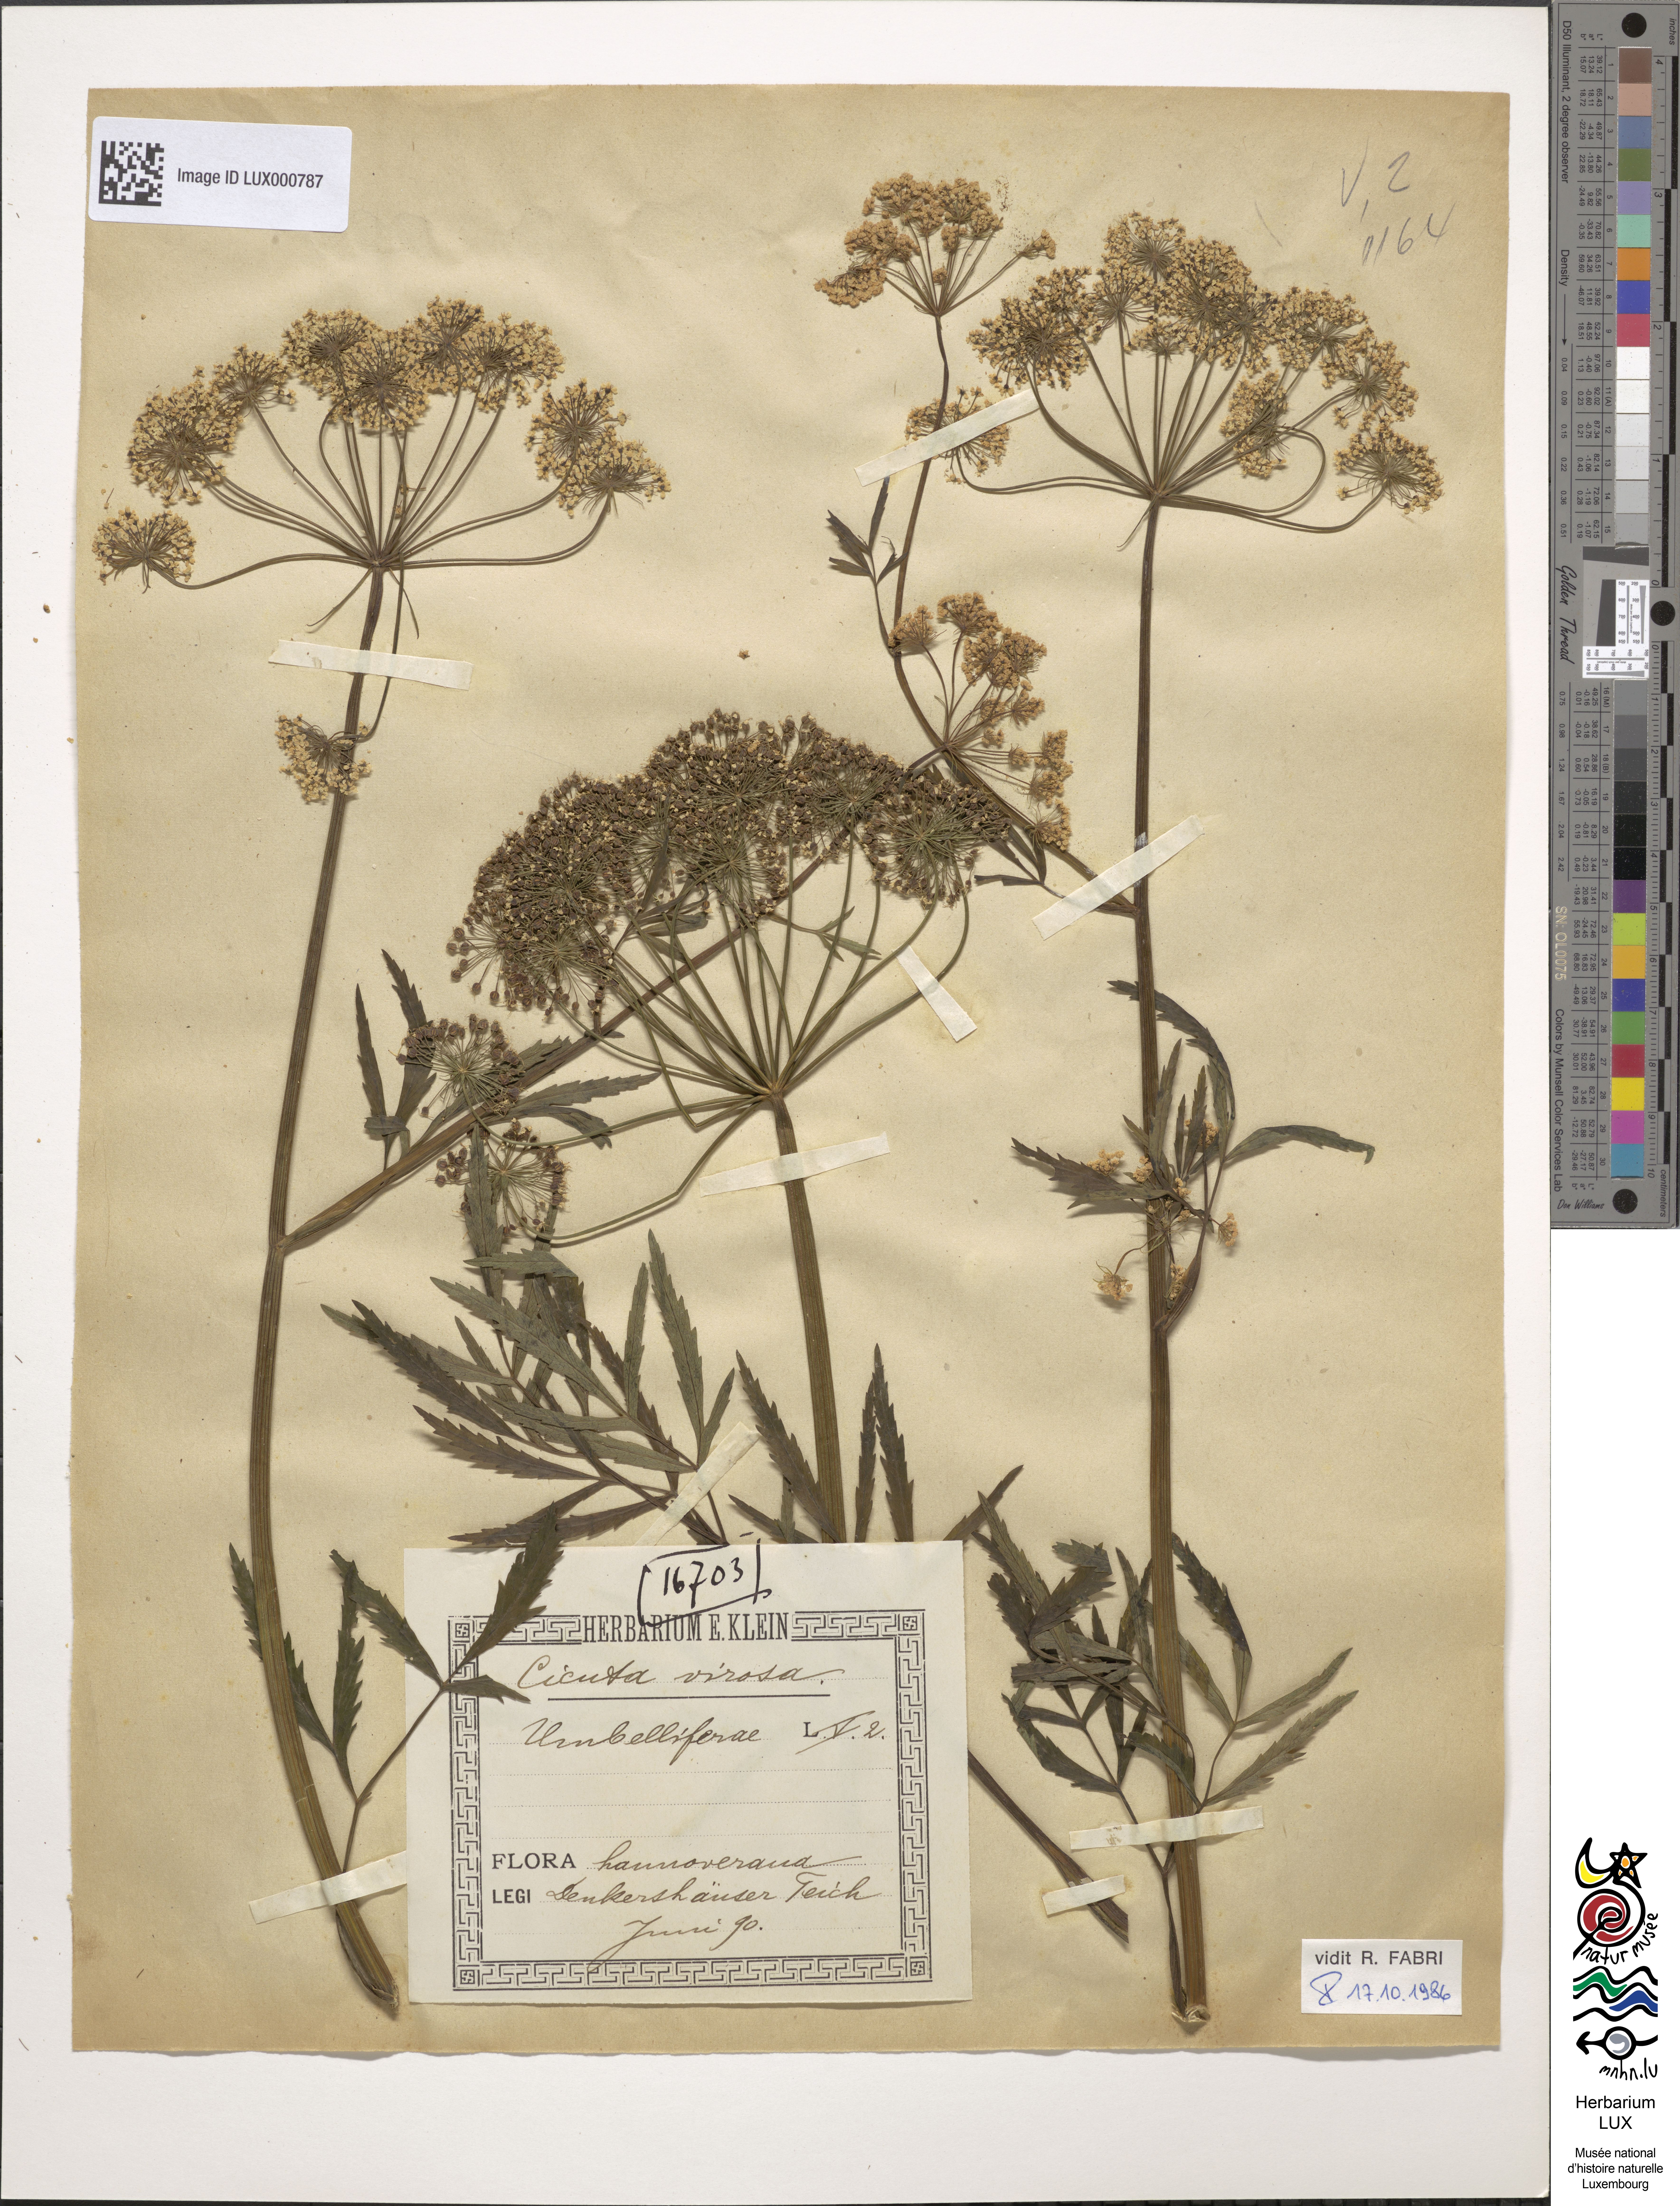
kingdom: Plantae
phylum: Tracheophyta
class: Magnoliopsida
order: Apiales
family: Apiaceae
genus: Cicuta
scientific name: Cicuta virosa
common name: Cowbane
